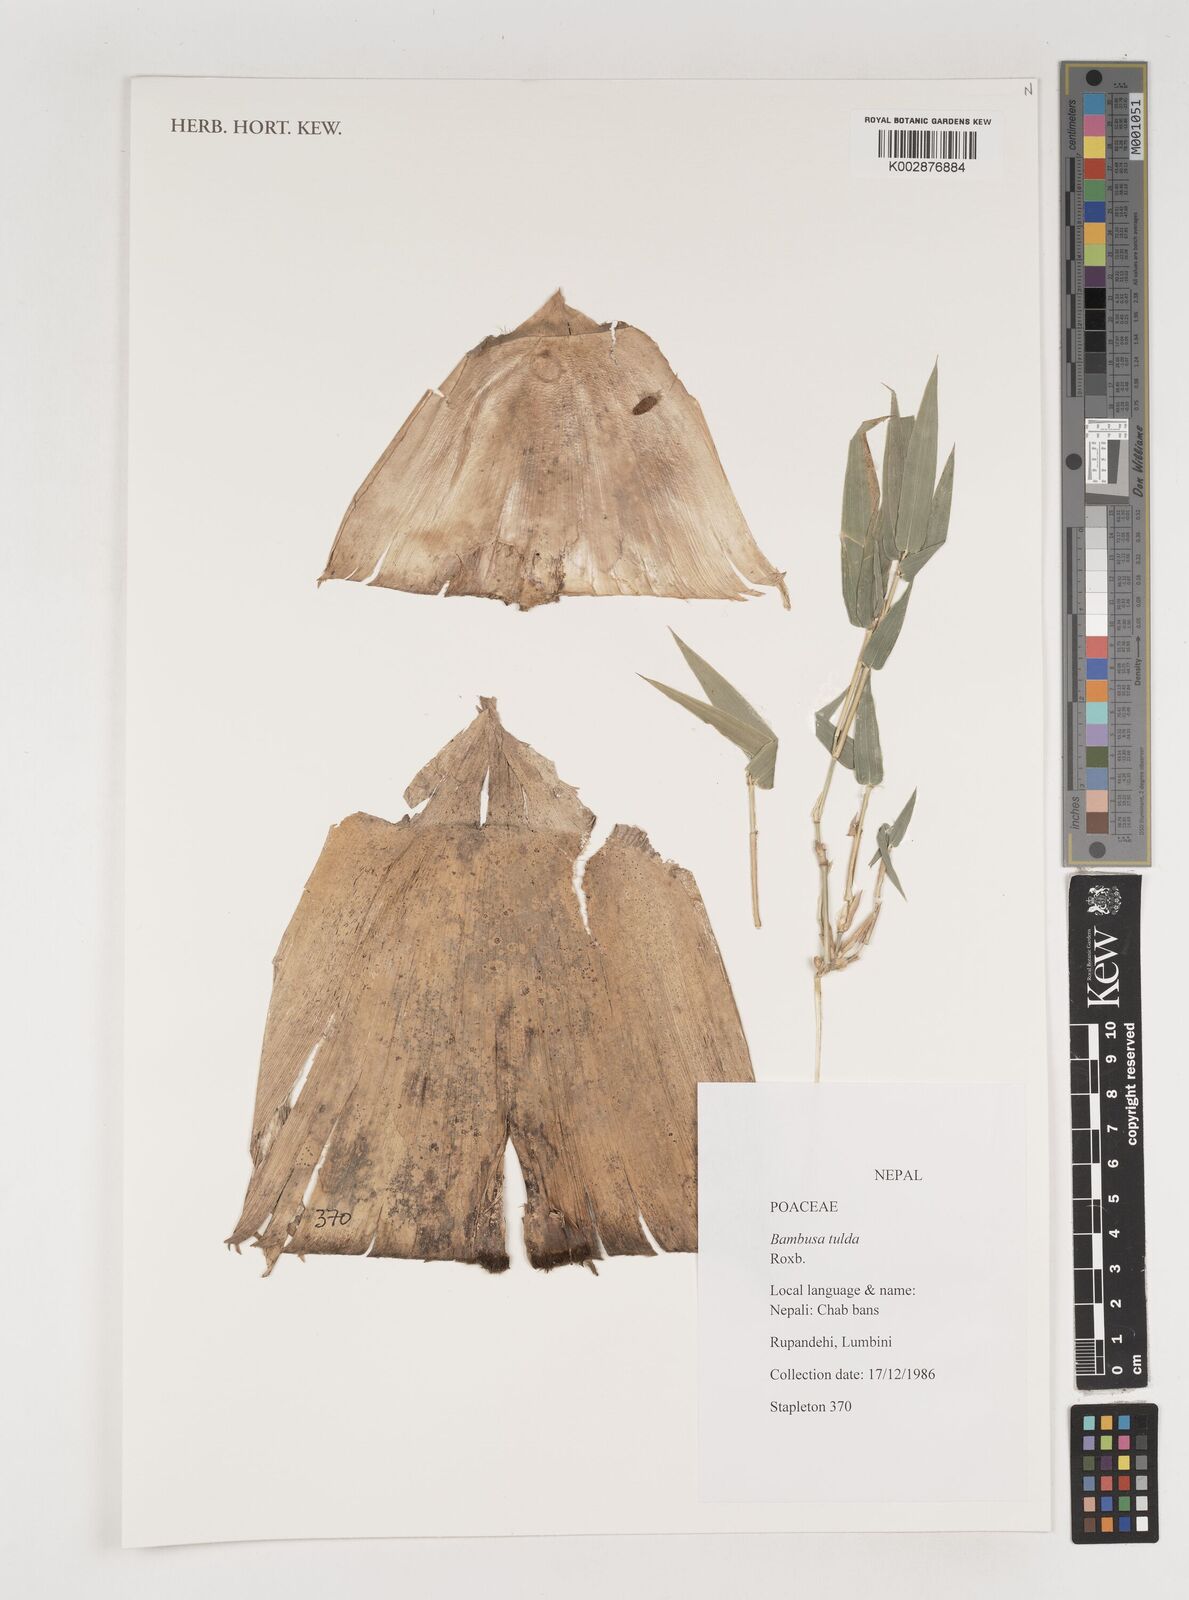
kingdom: Plantae
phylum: Tracheophyta
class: Liliopsida
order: Poales
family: Poaceae
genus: Bambusa
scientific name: Bambusa tuldoides
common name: Verdant bamboo
